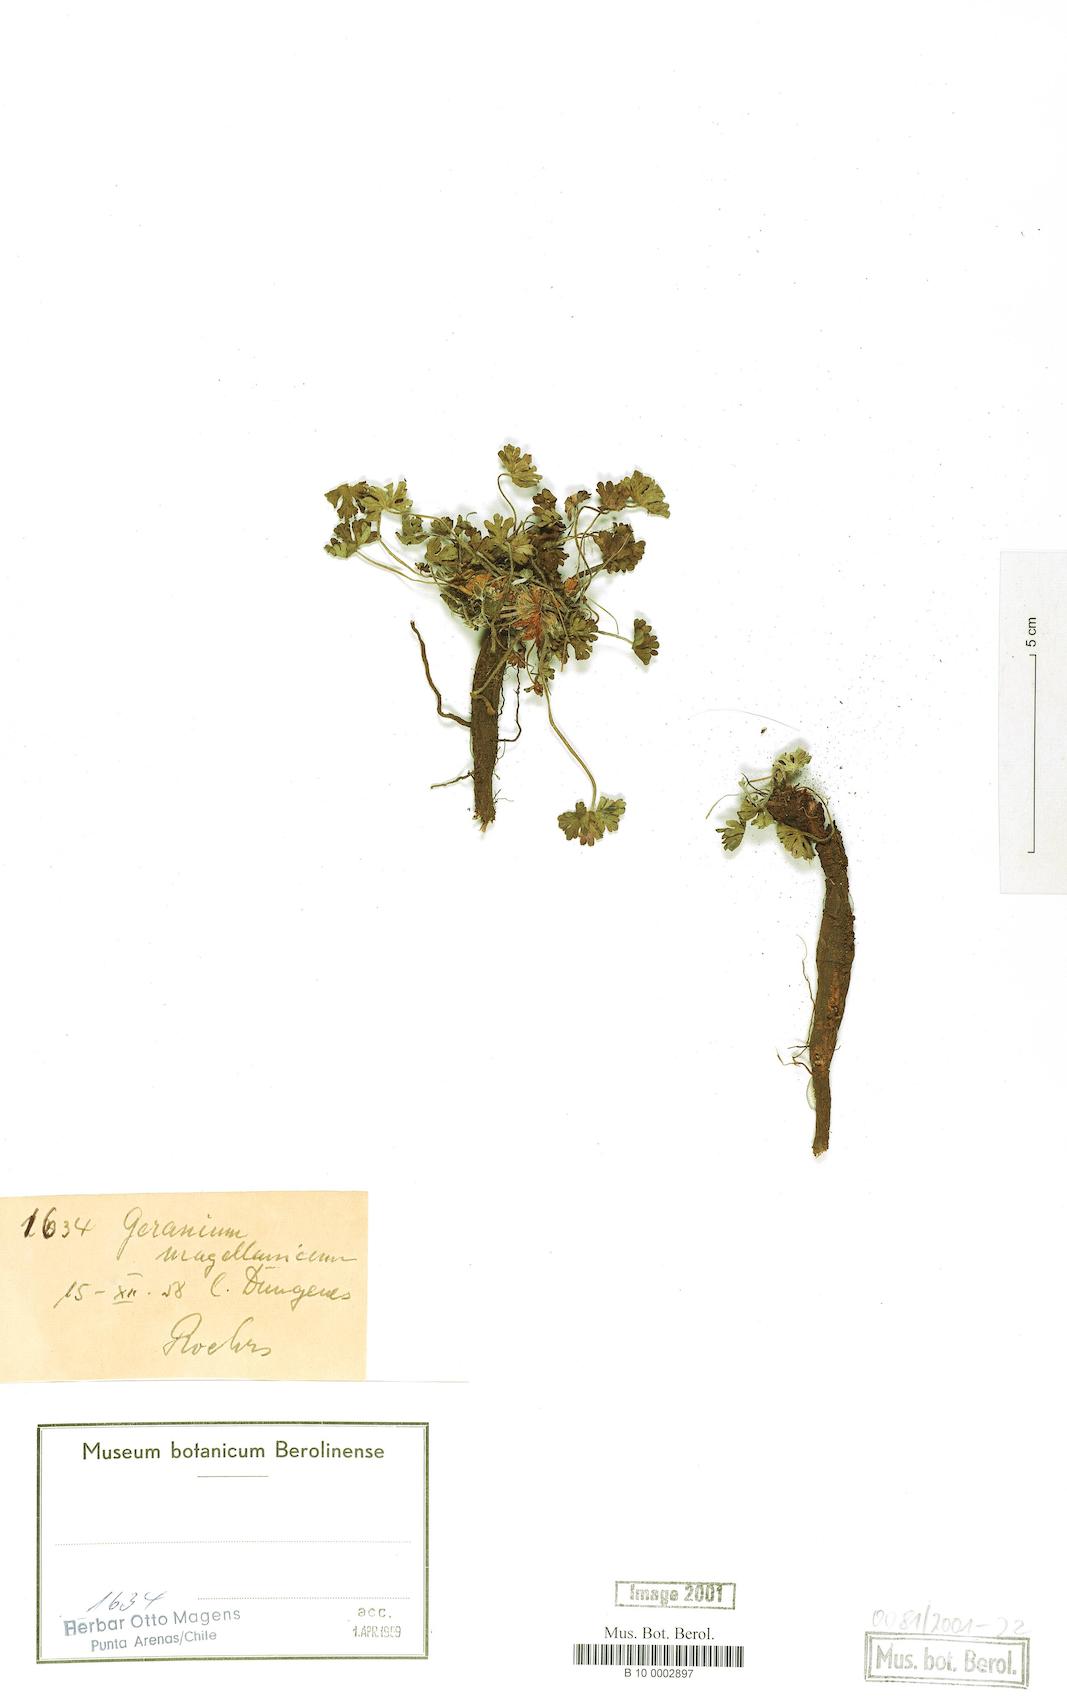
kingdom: Plantae
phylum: Tracheophyta
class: Magnoliopsida
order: Geraniales
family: Geraniaceae
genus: Geranium
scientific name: Geranium magellanicum
